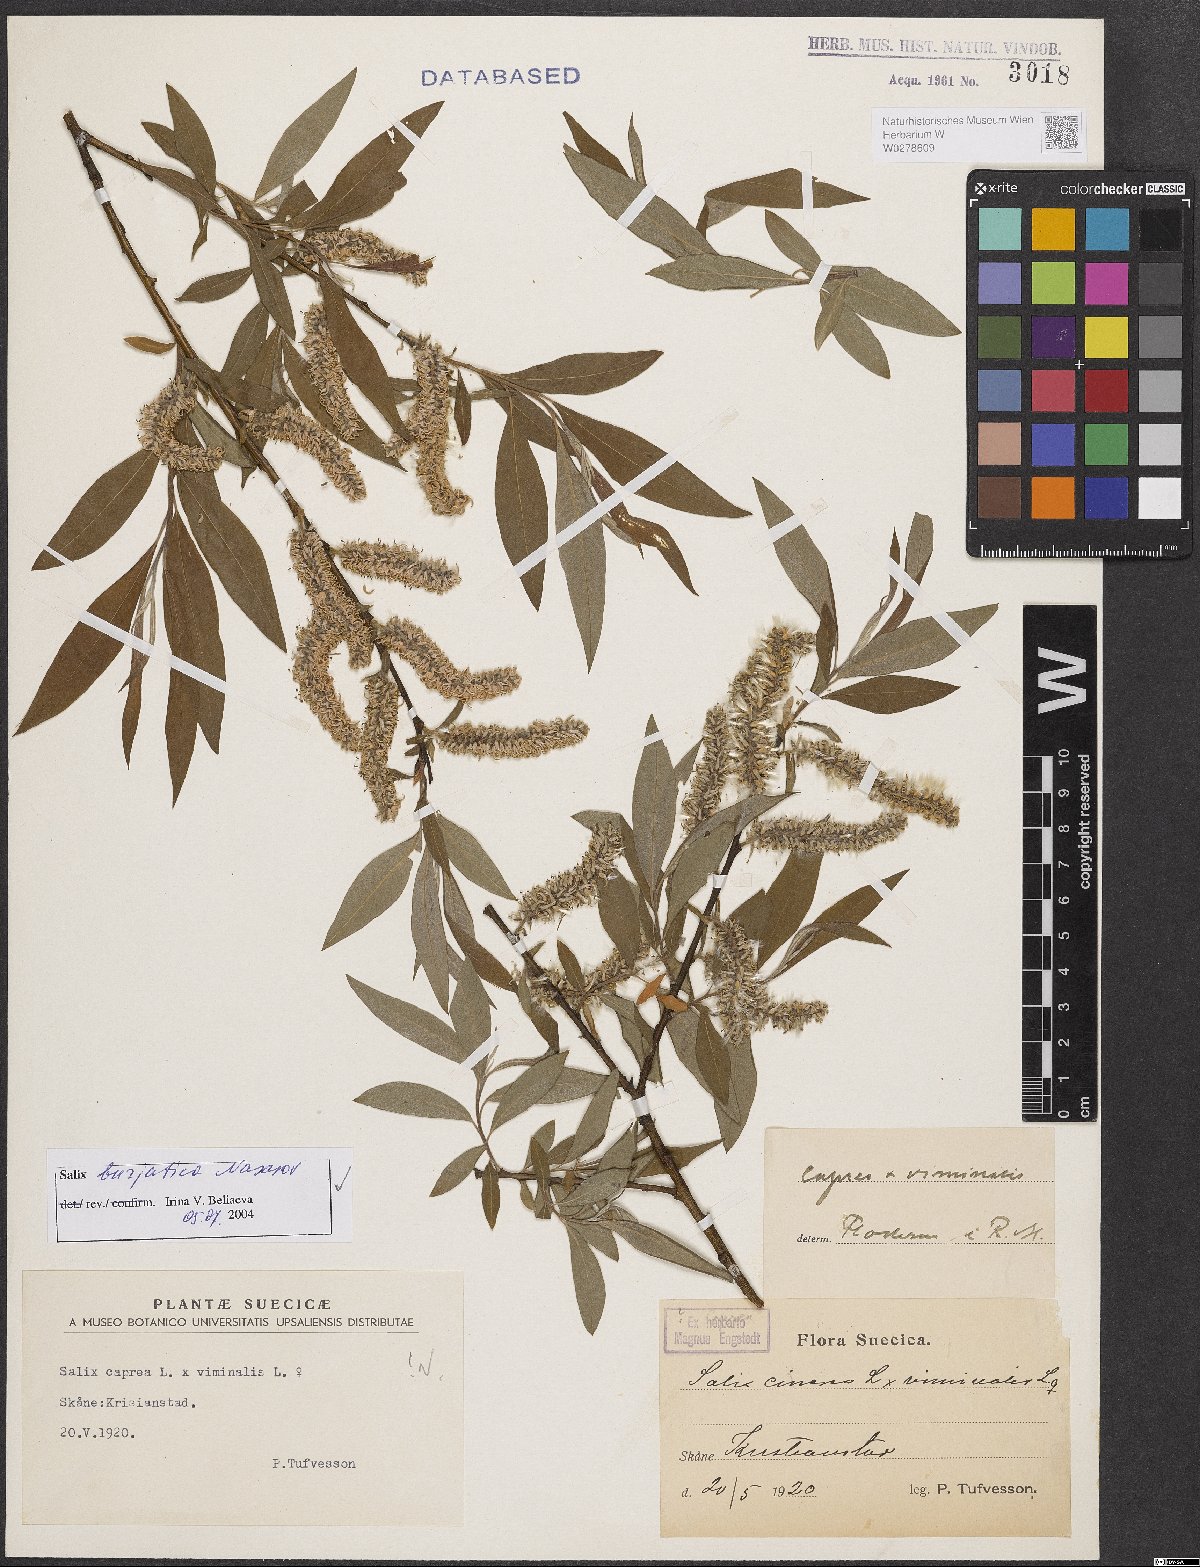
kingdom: Plantae
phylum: Tracheophyta
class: Magnoliopsida
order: Malpighiales
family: Salicaceae
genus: Salix
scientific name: Salix gmelinii
